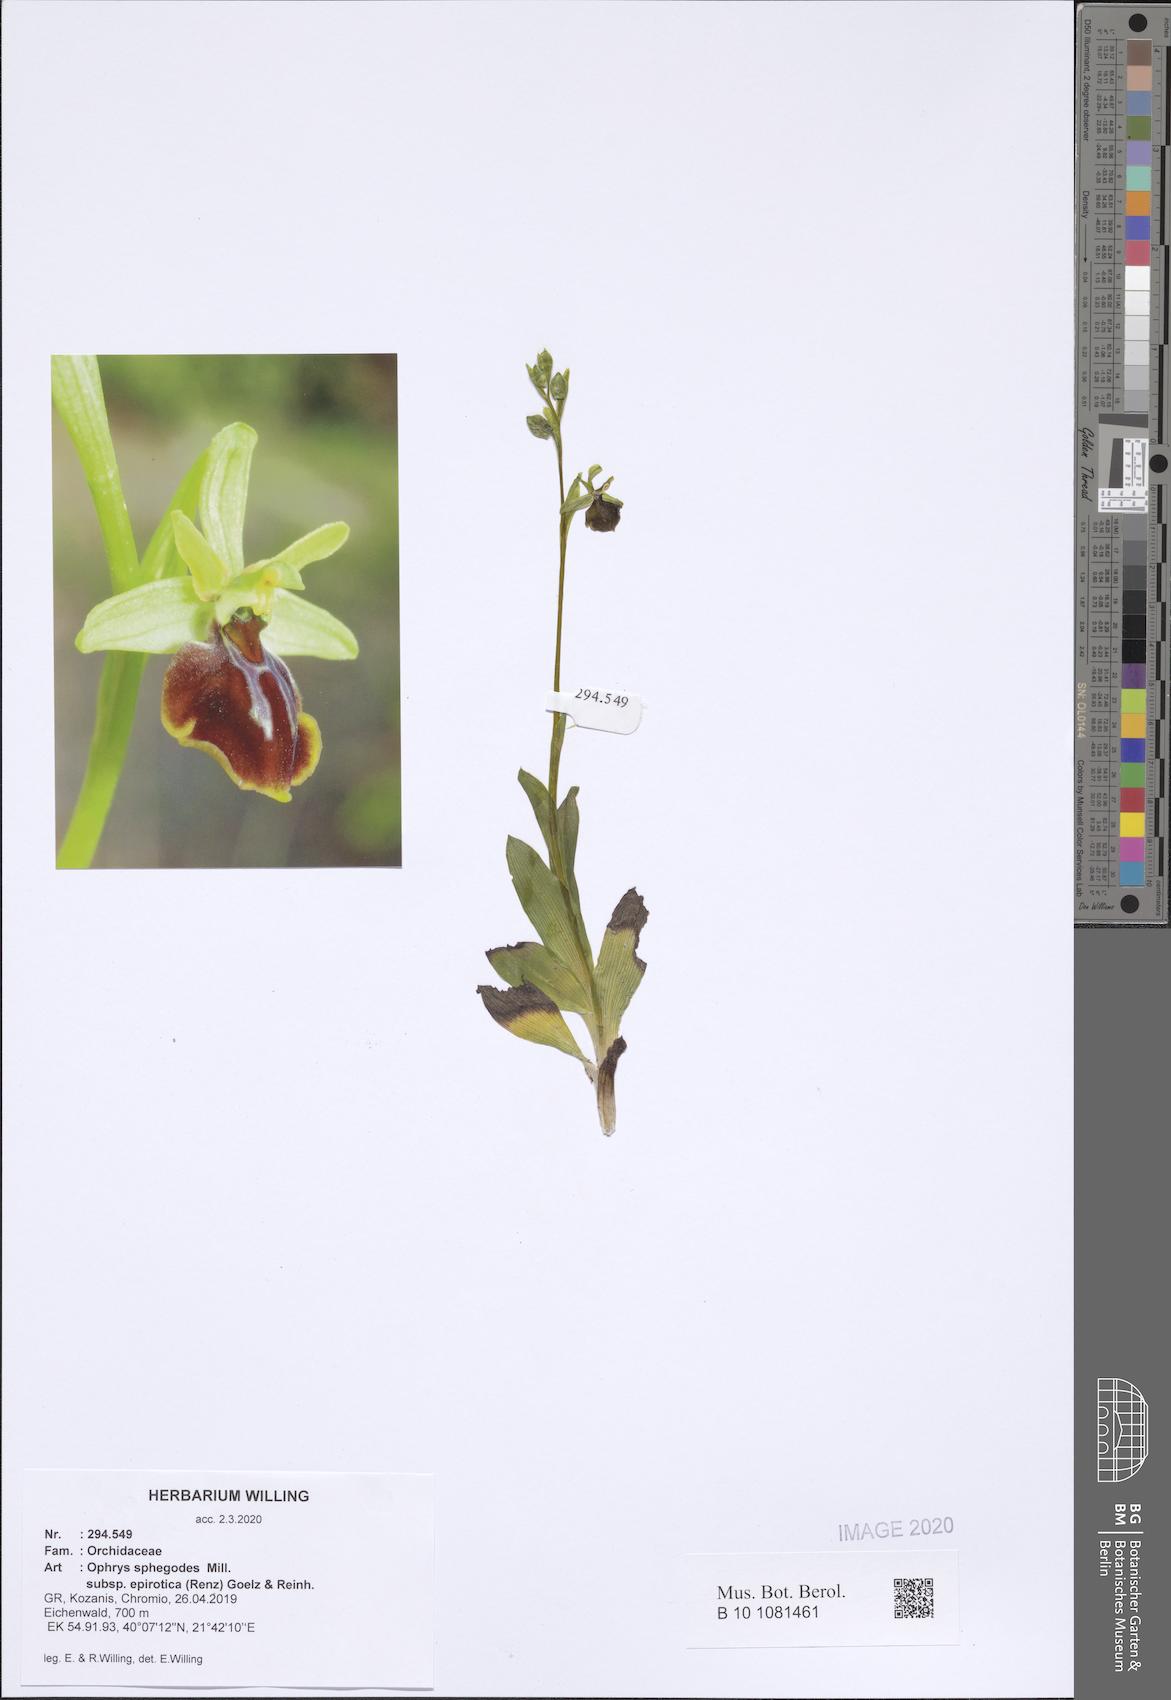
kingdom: Plantae
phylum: Tracheophyta
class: Liliopsida
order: Asparagales
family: Orchidaceae
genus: Ophrys
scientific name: Ophrys sphegodes
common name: Early spider-orchid
